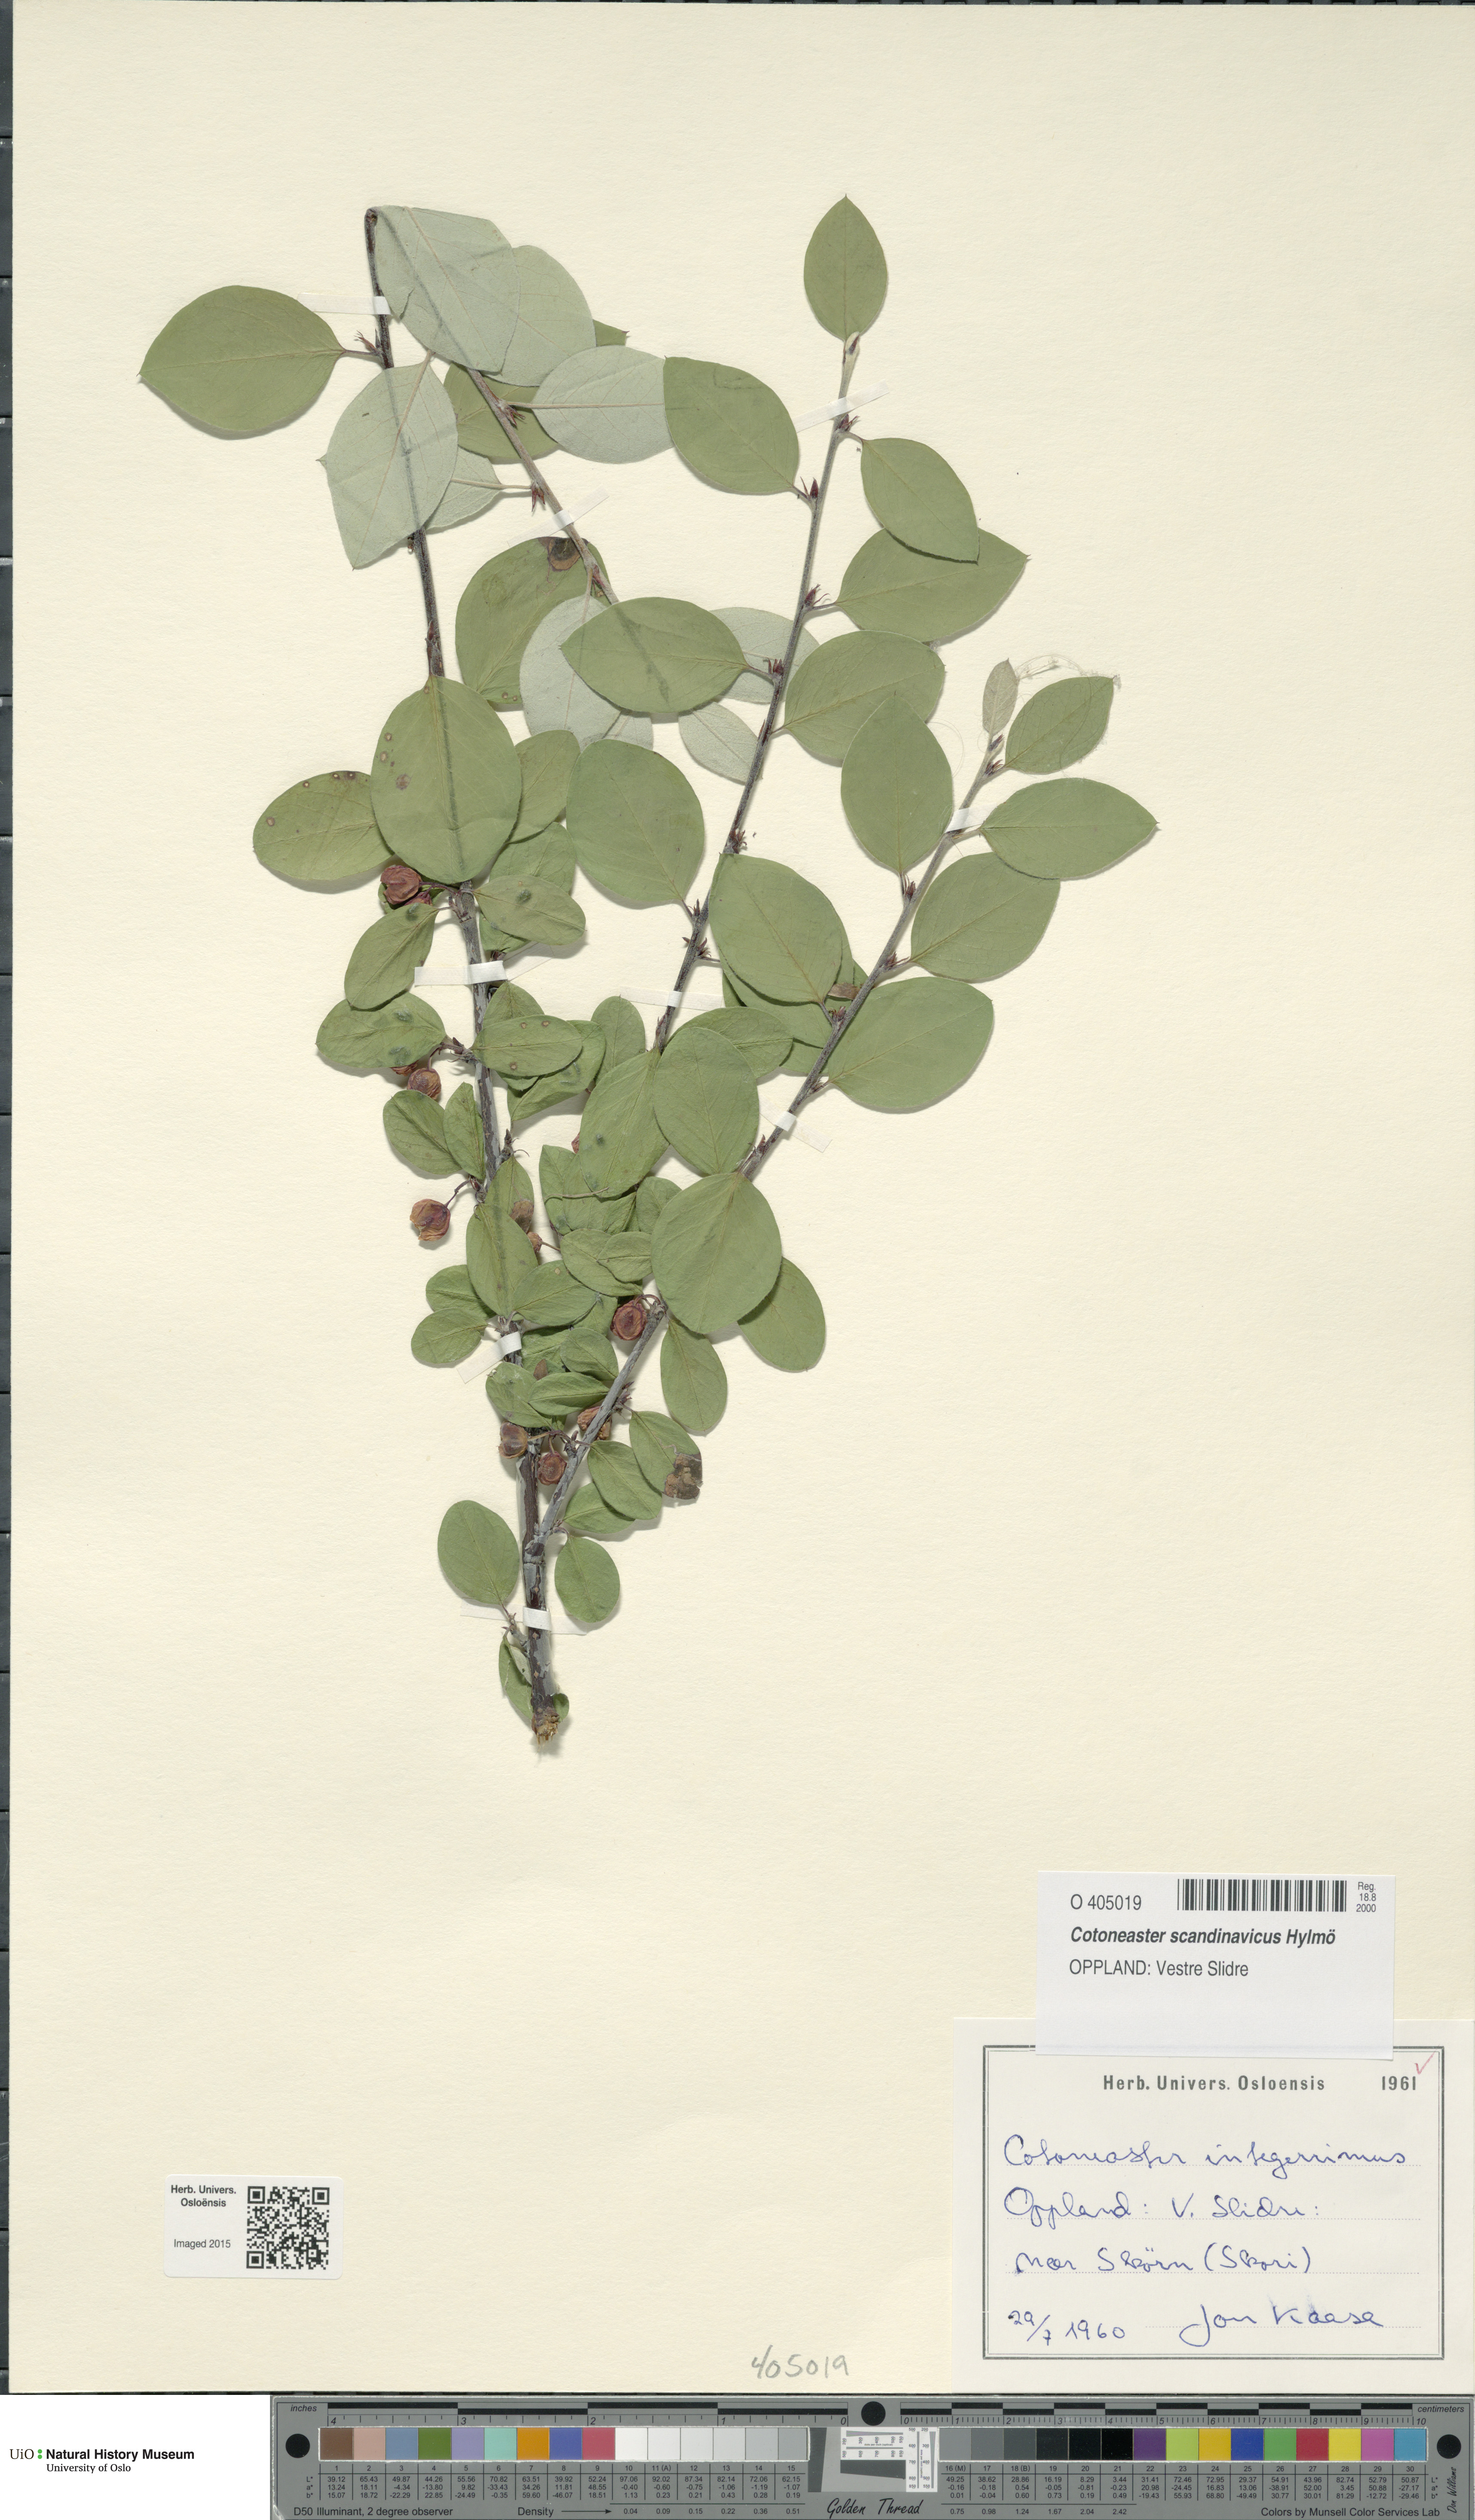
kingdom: Plantae
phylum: Tracheophyta
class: Magnoliopsida
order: Rosales
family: Rosaceae
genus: Cotoneaster
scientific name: Cotoneaster integerrimus
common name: Wild cotoneaster
